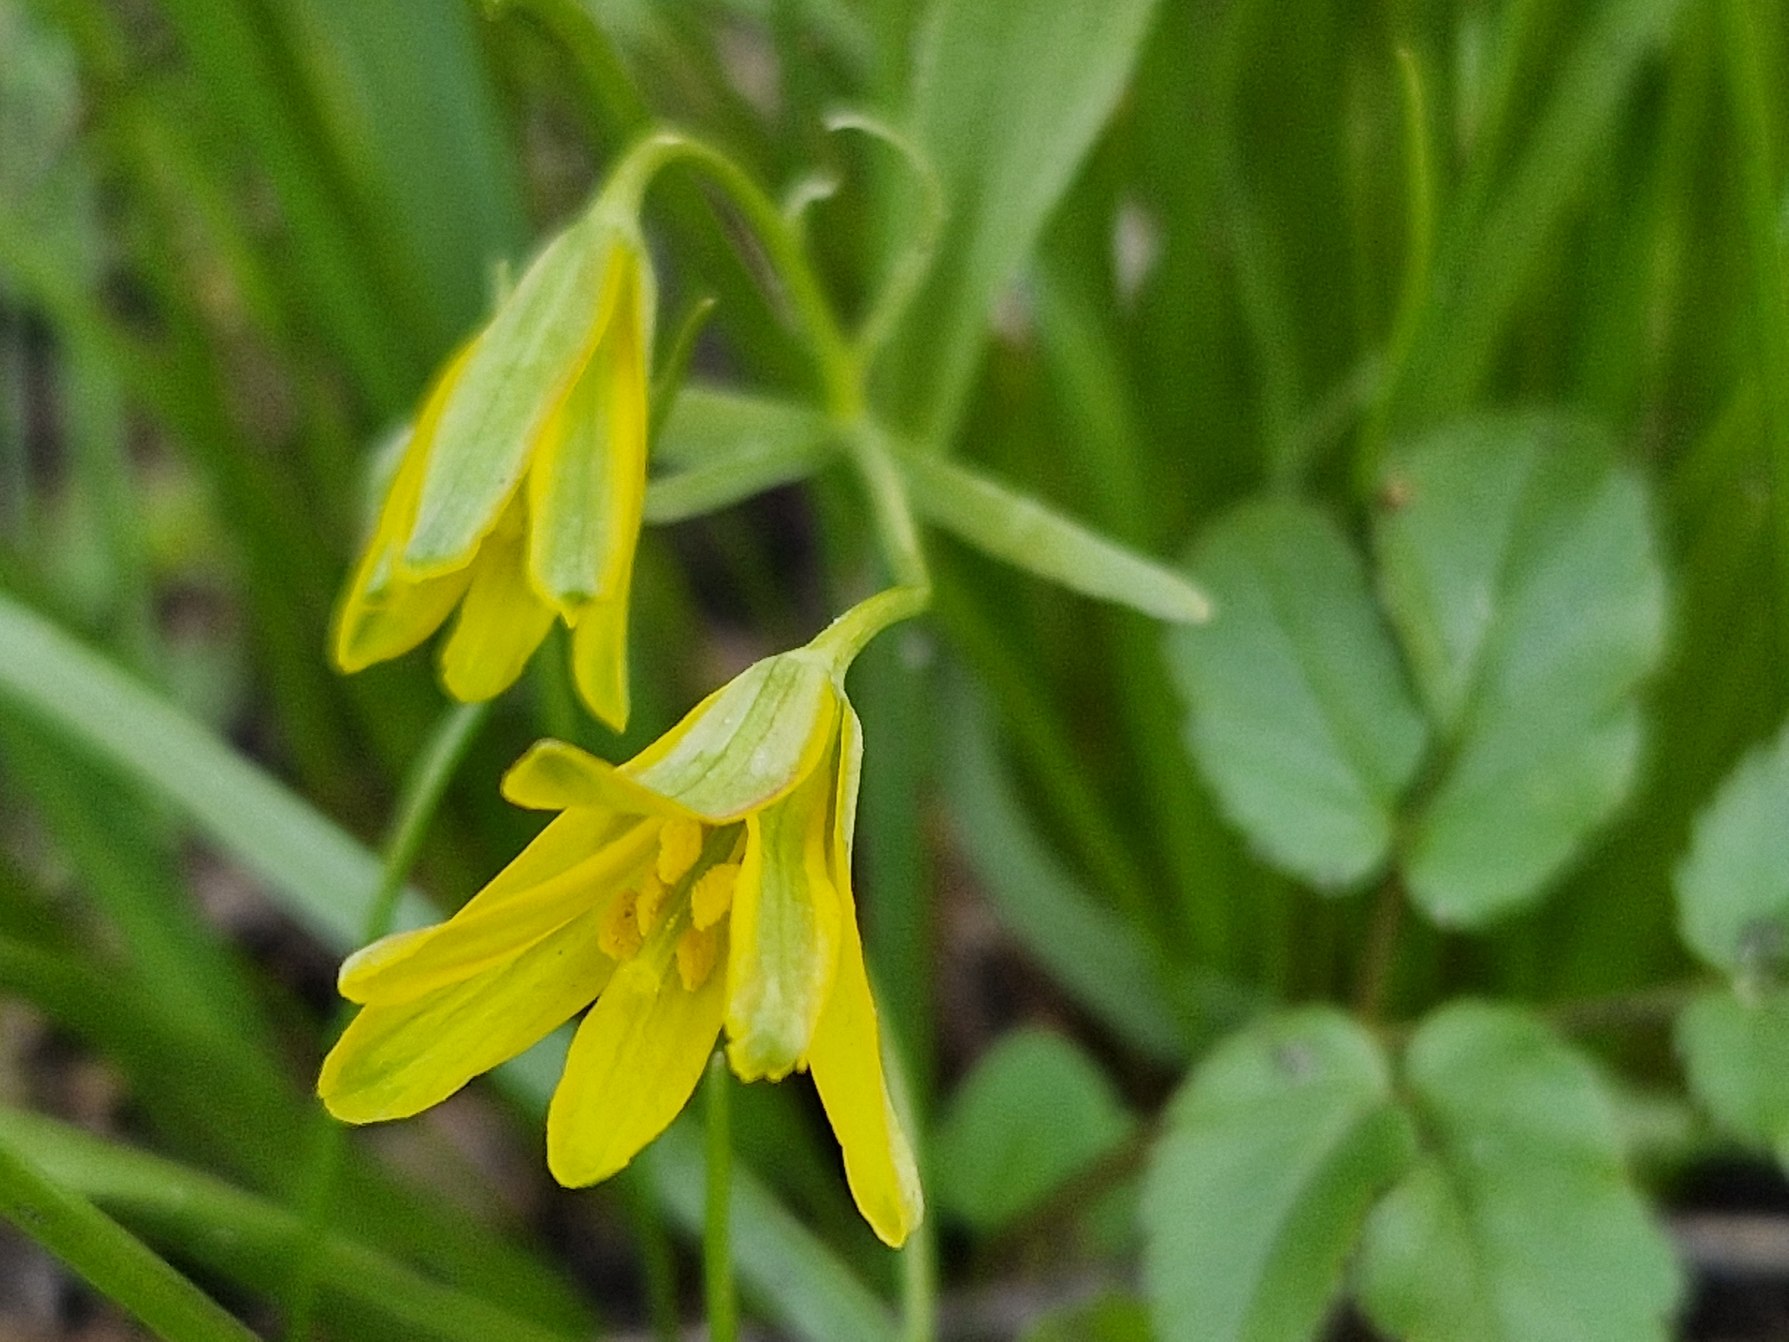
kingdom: Plantae
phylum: Tracheophyta
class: Liliopsida
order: Liliales
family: Liliaceae
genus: Gagea
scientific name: Gagea lutea
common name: Almindelig guldstjerne
